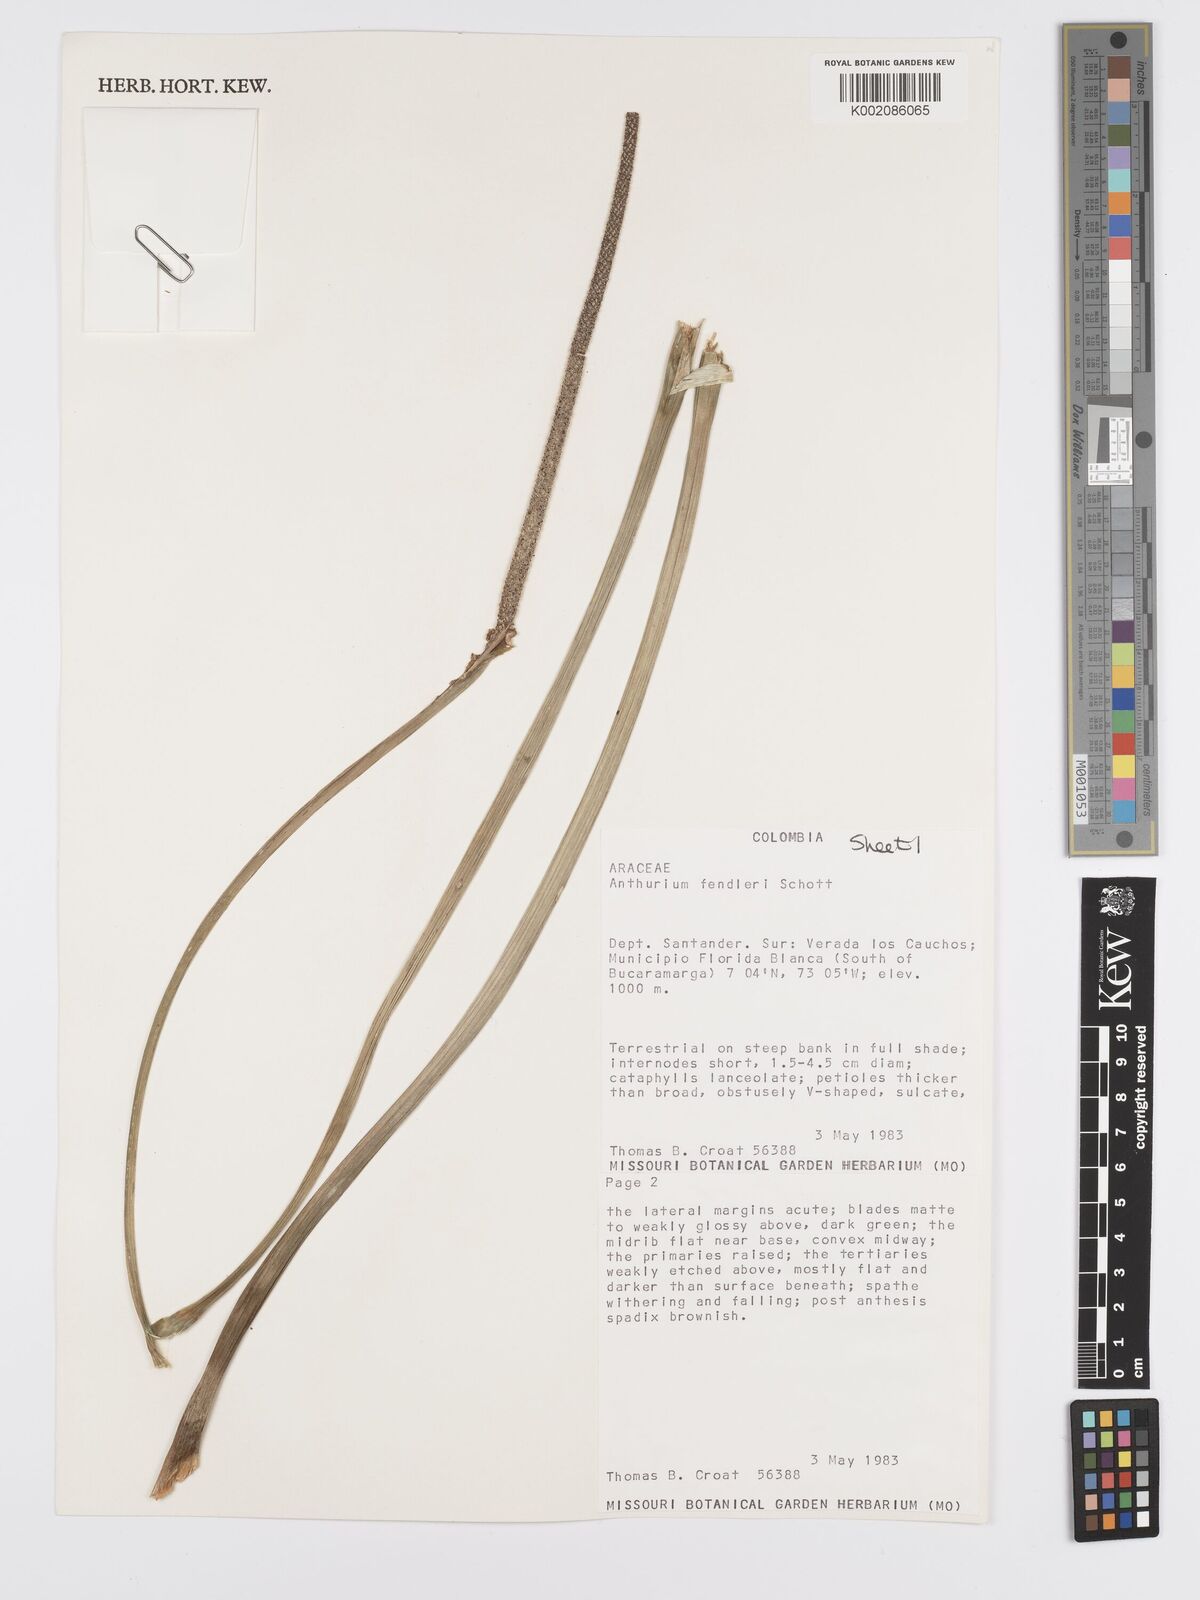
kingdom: Plantae
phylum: Tracheophyta
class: Liliopsida
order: Alismatales
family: Araceae
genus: Anthurium
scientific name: Anthurium fendleri
